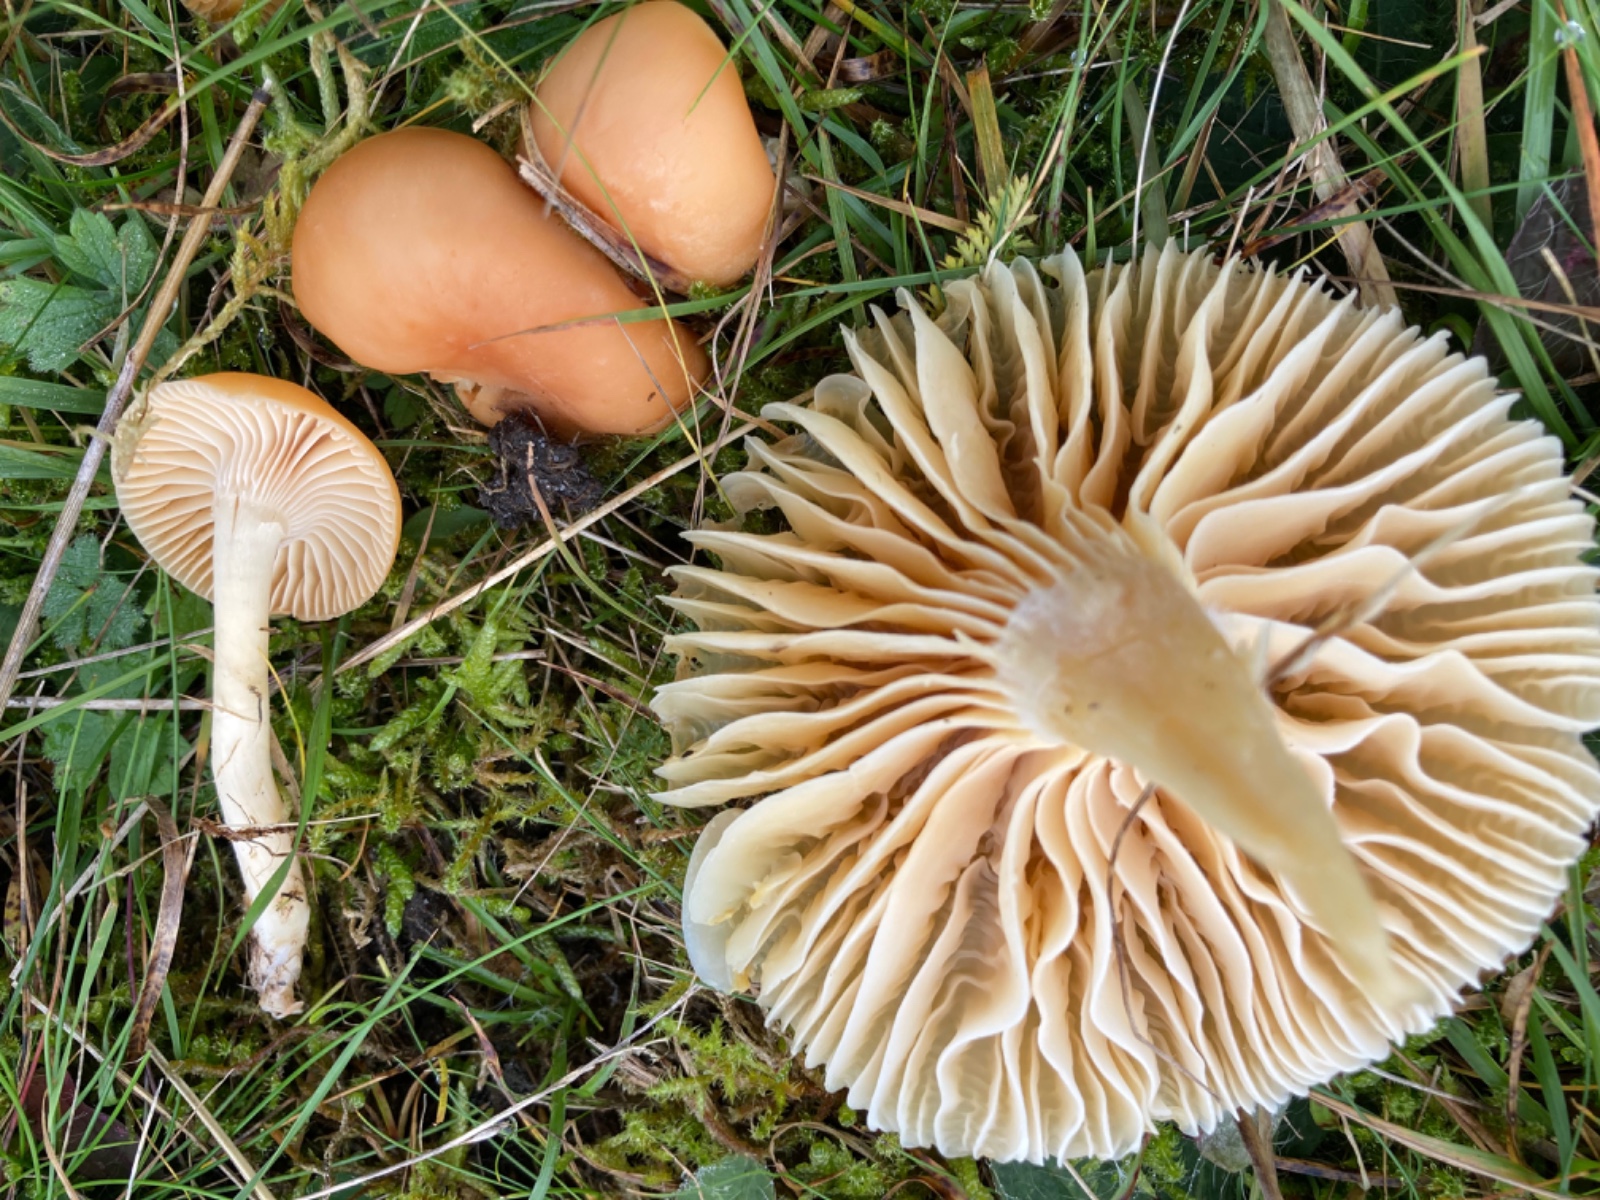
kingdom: Fungi
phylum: Basidiomycota
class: Agaricomycetes
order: Agaricales
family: Hygrophoraceae
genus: Cuphophyllus
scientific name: Cuphophyllus pratensis
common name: eng-vokshat
